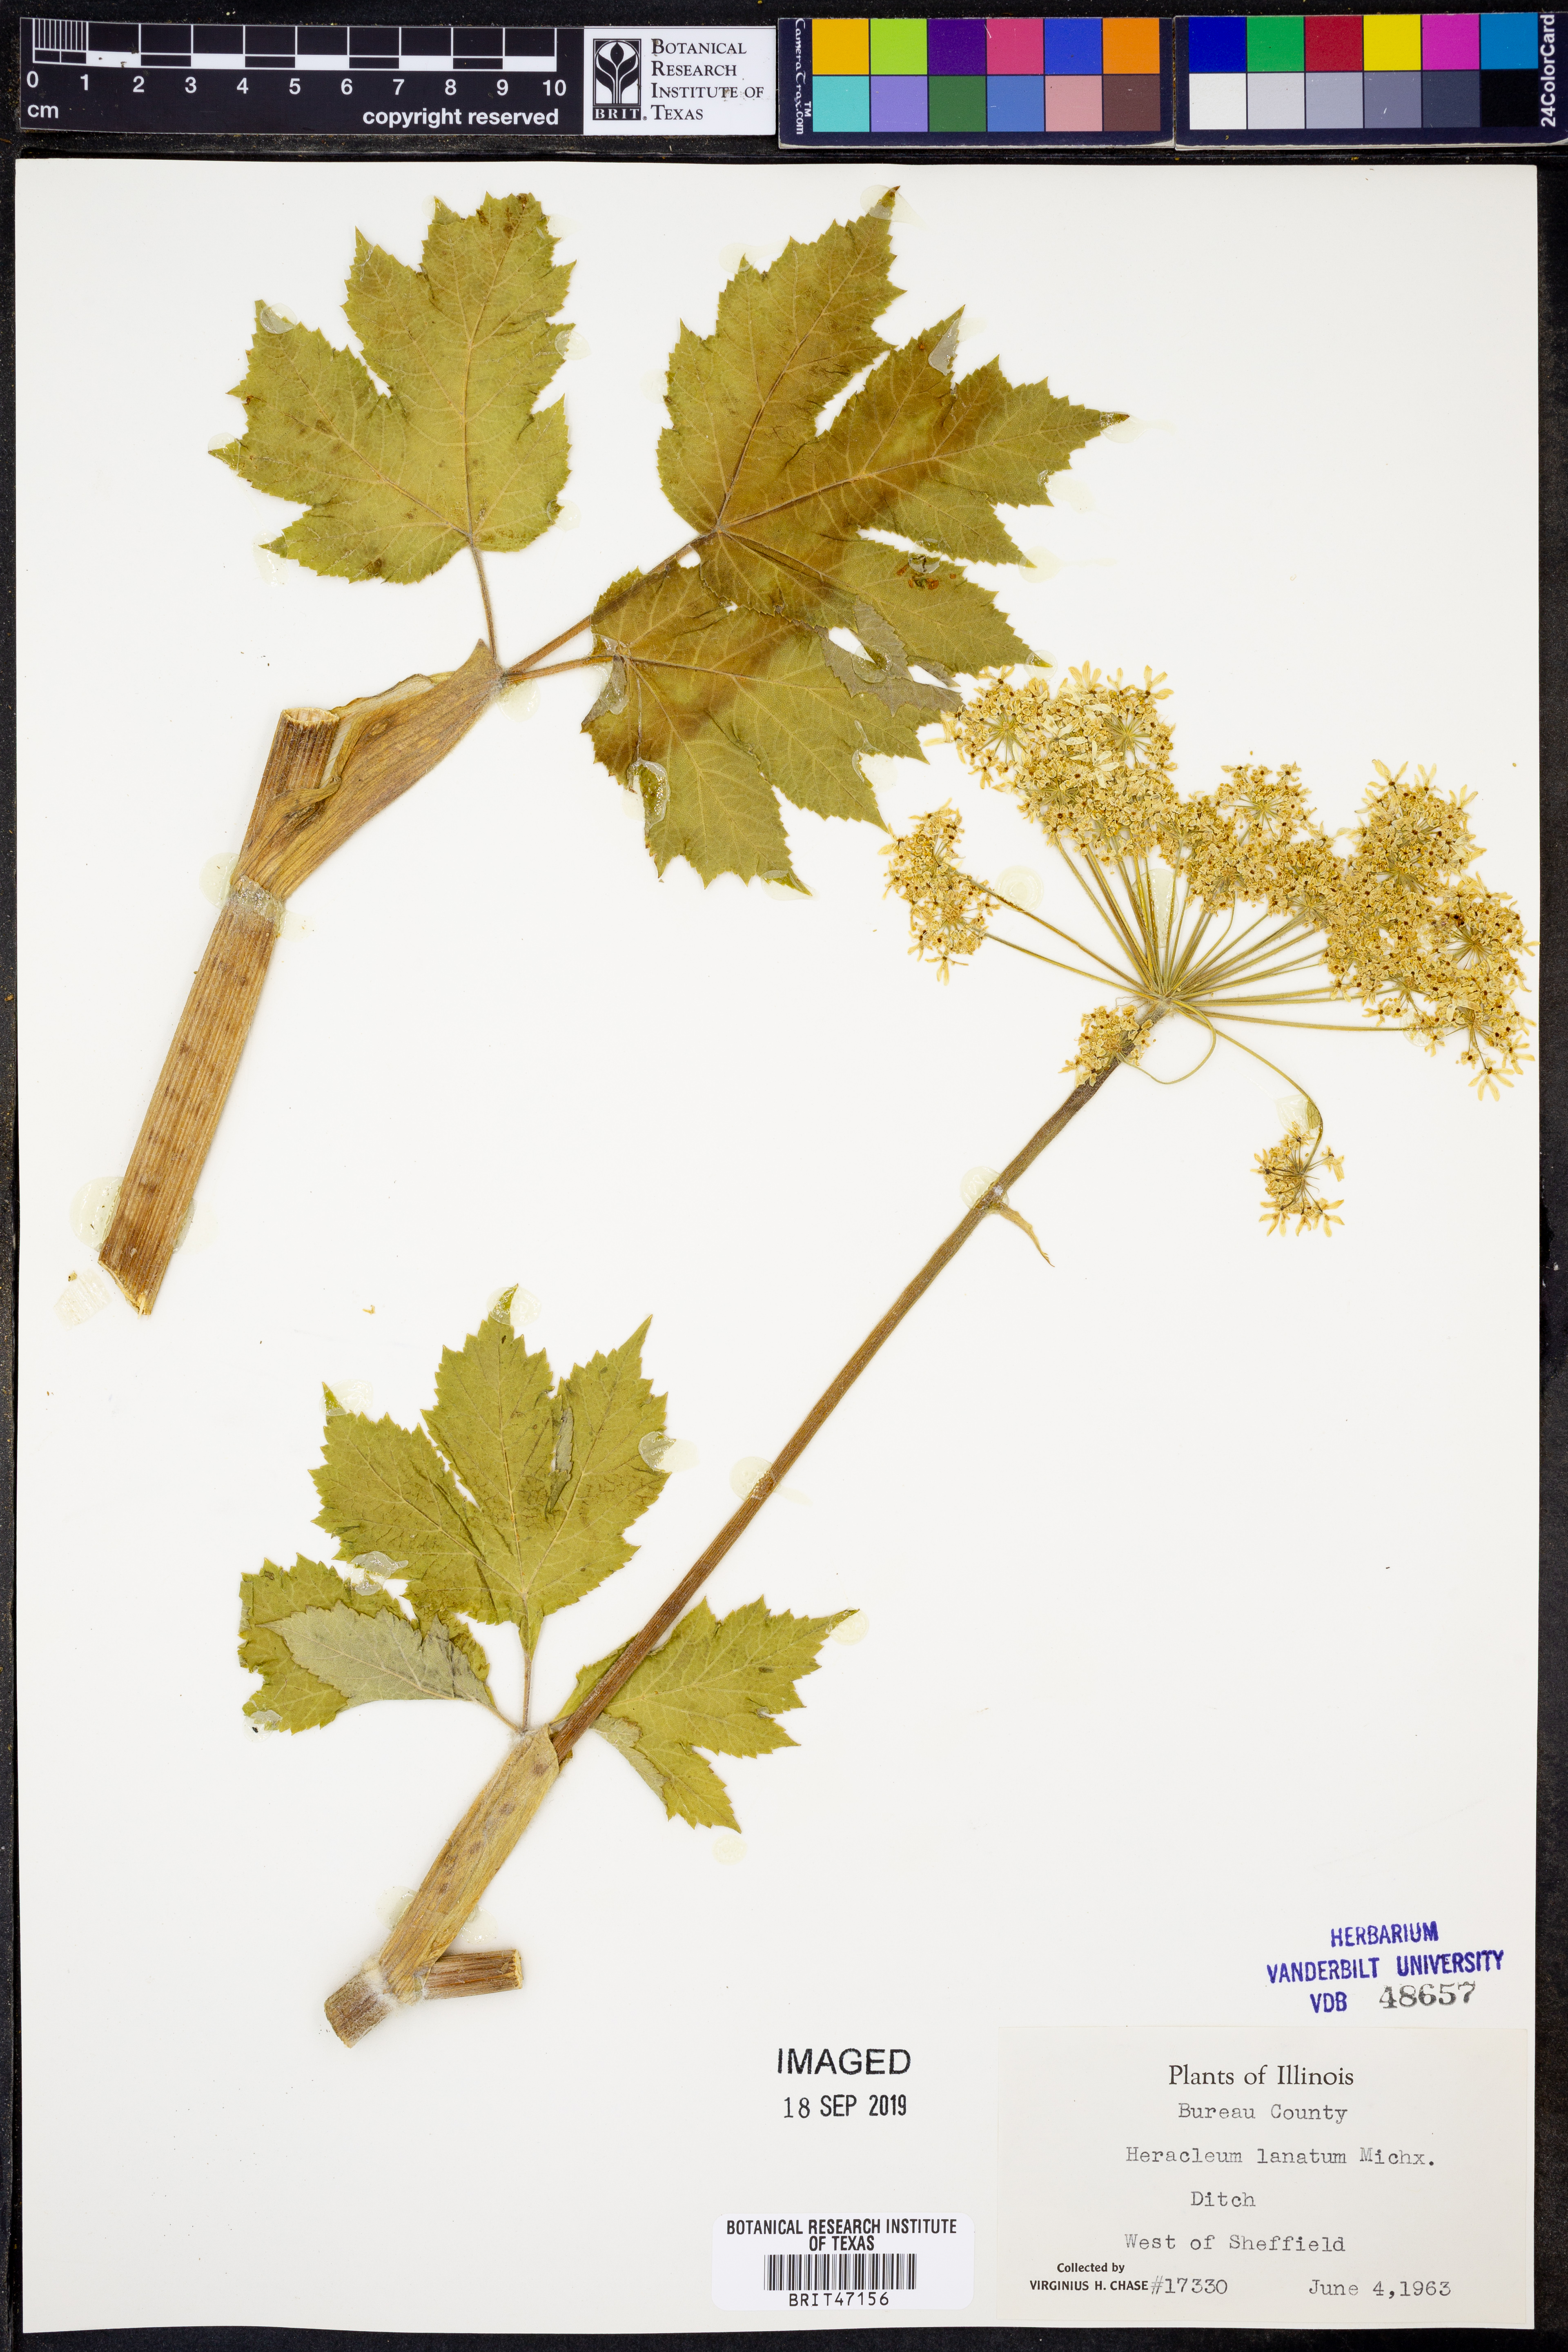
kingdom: Plantae
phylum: Tracheophyta
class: Magnoliopsida
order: Apiales
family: Apiaceae
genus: Heracleum
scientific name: Heracleum maximum
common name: American cow parsnip
